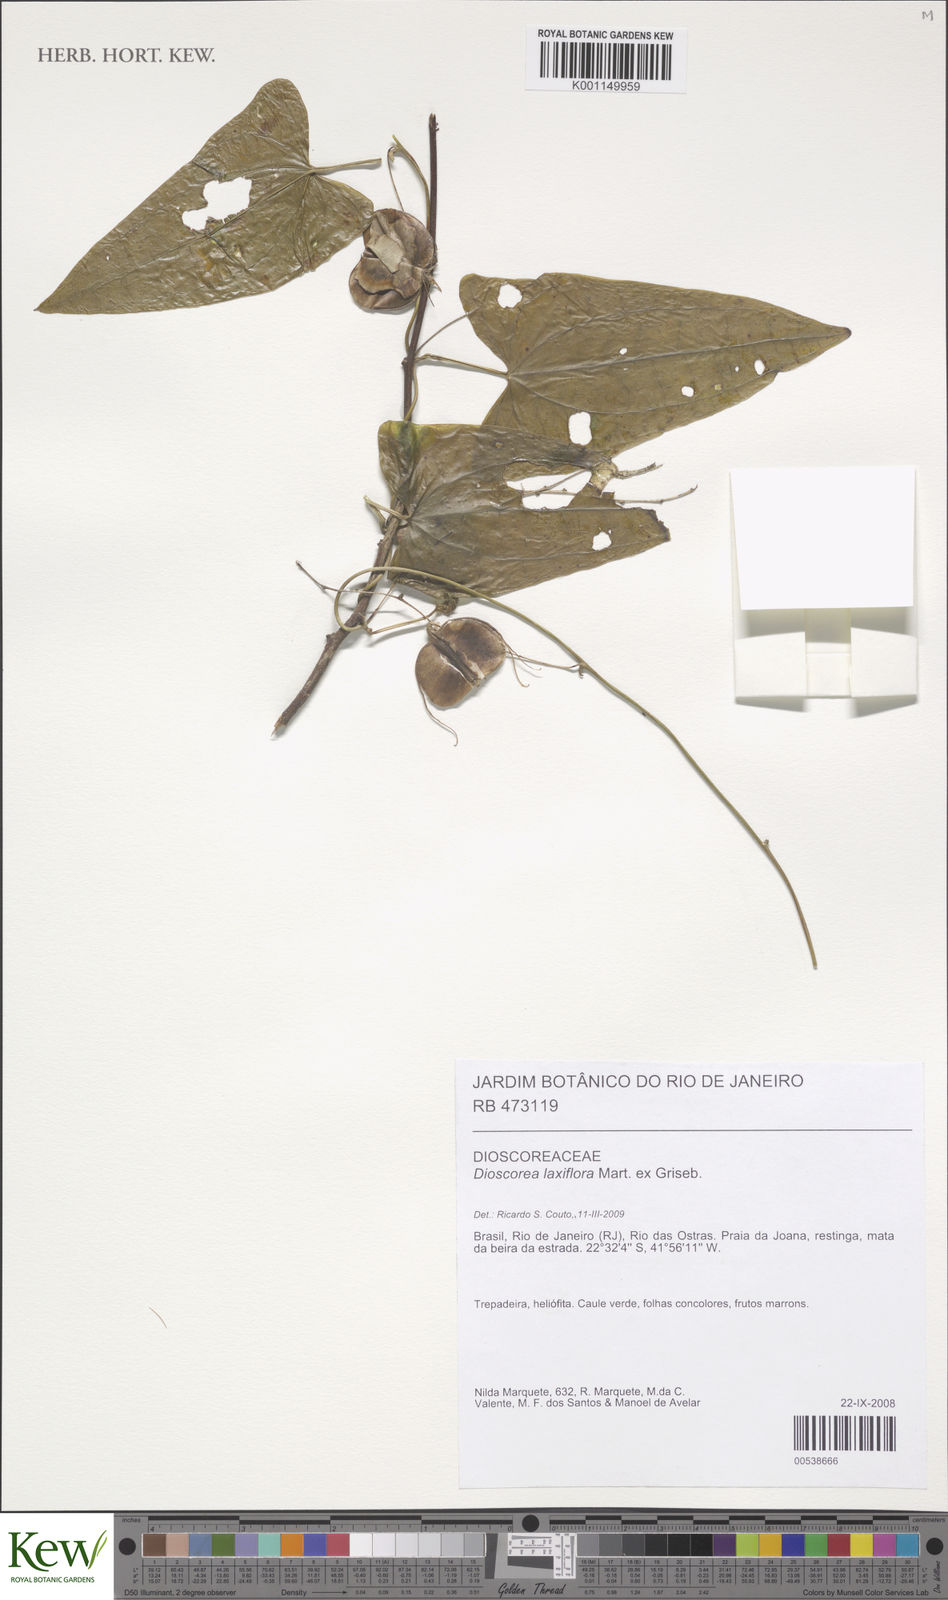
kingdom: Plantae
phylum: Tracheophyta
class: Liliopsida
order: Dioscoreales
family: Dioscoreaceae
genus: Dioscorea
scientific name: Dioscorea laxiflora
